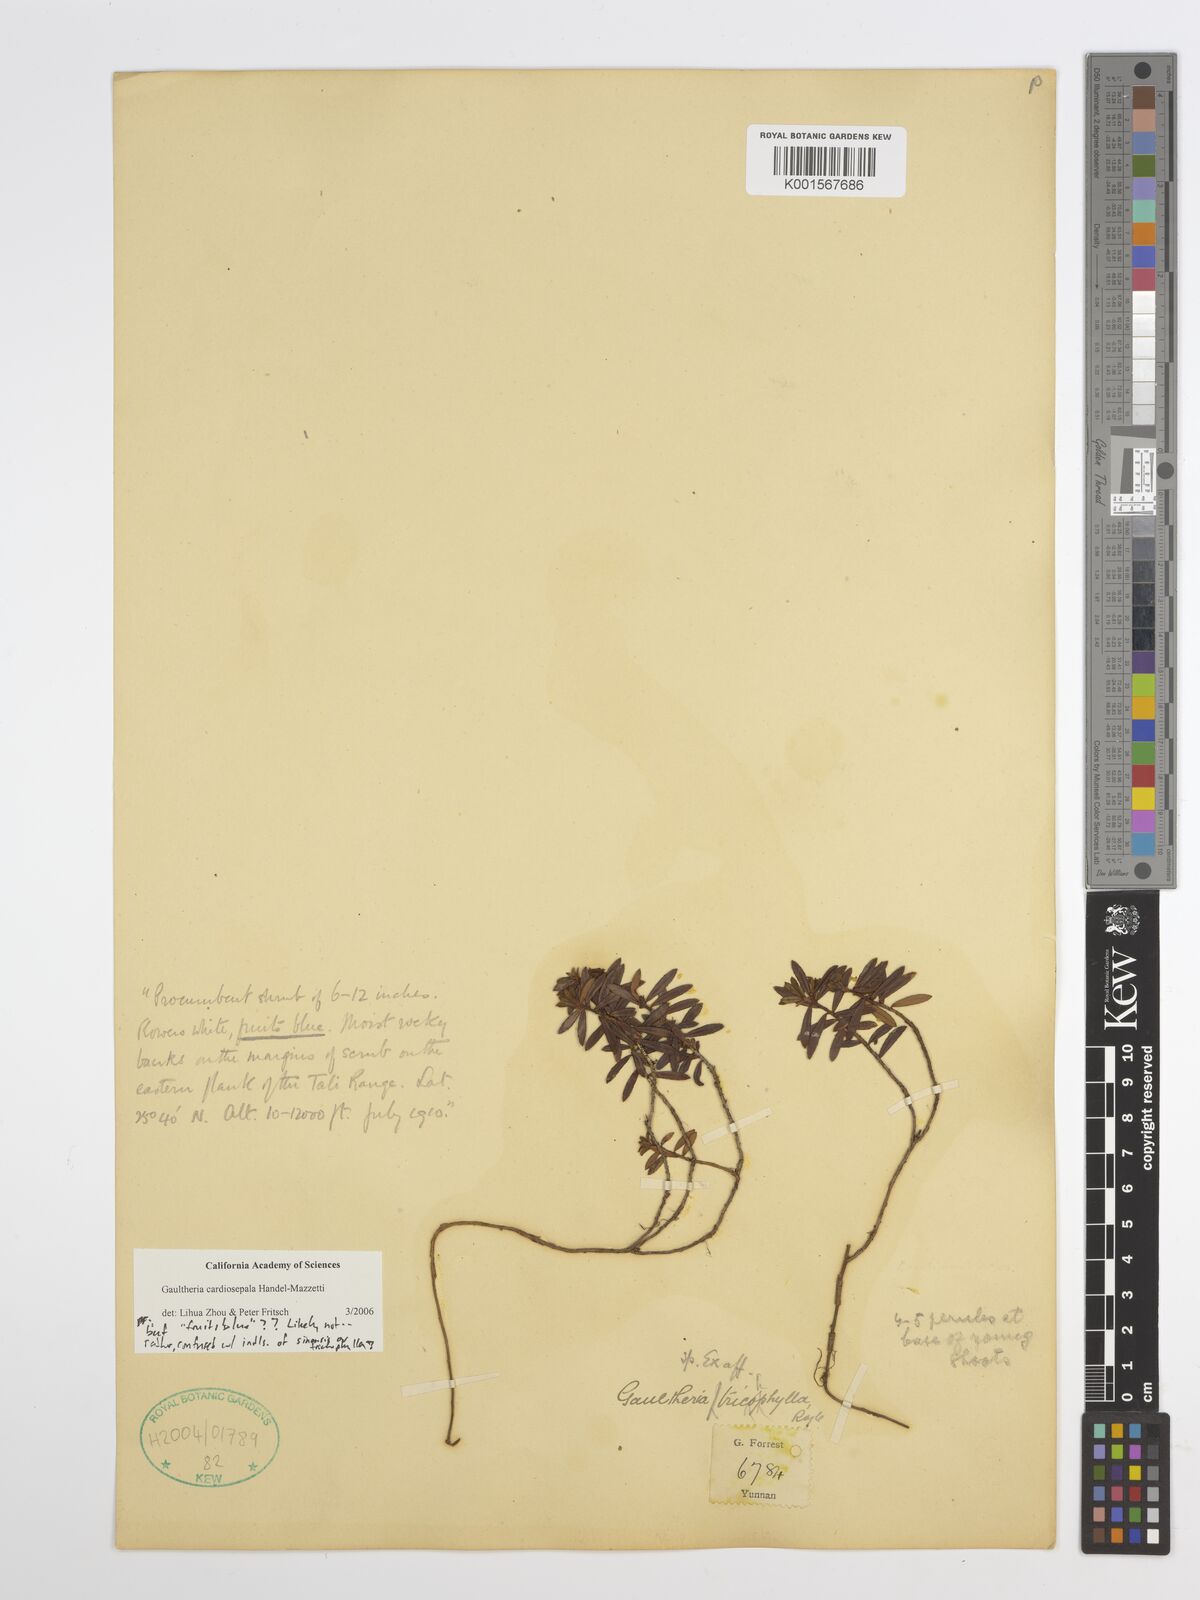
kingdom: Plantae
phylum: Tracheophyta
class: Magnoliopsida
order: Ericales
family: Ericaceae
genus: Gaultheria
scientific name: Gaultheria cardiosepala
